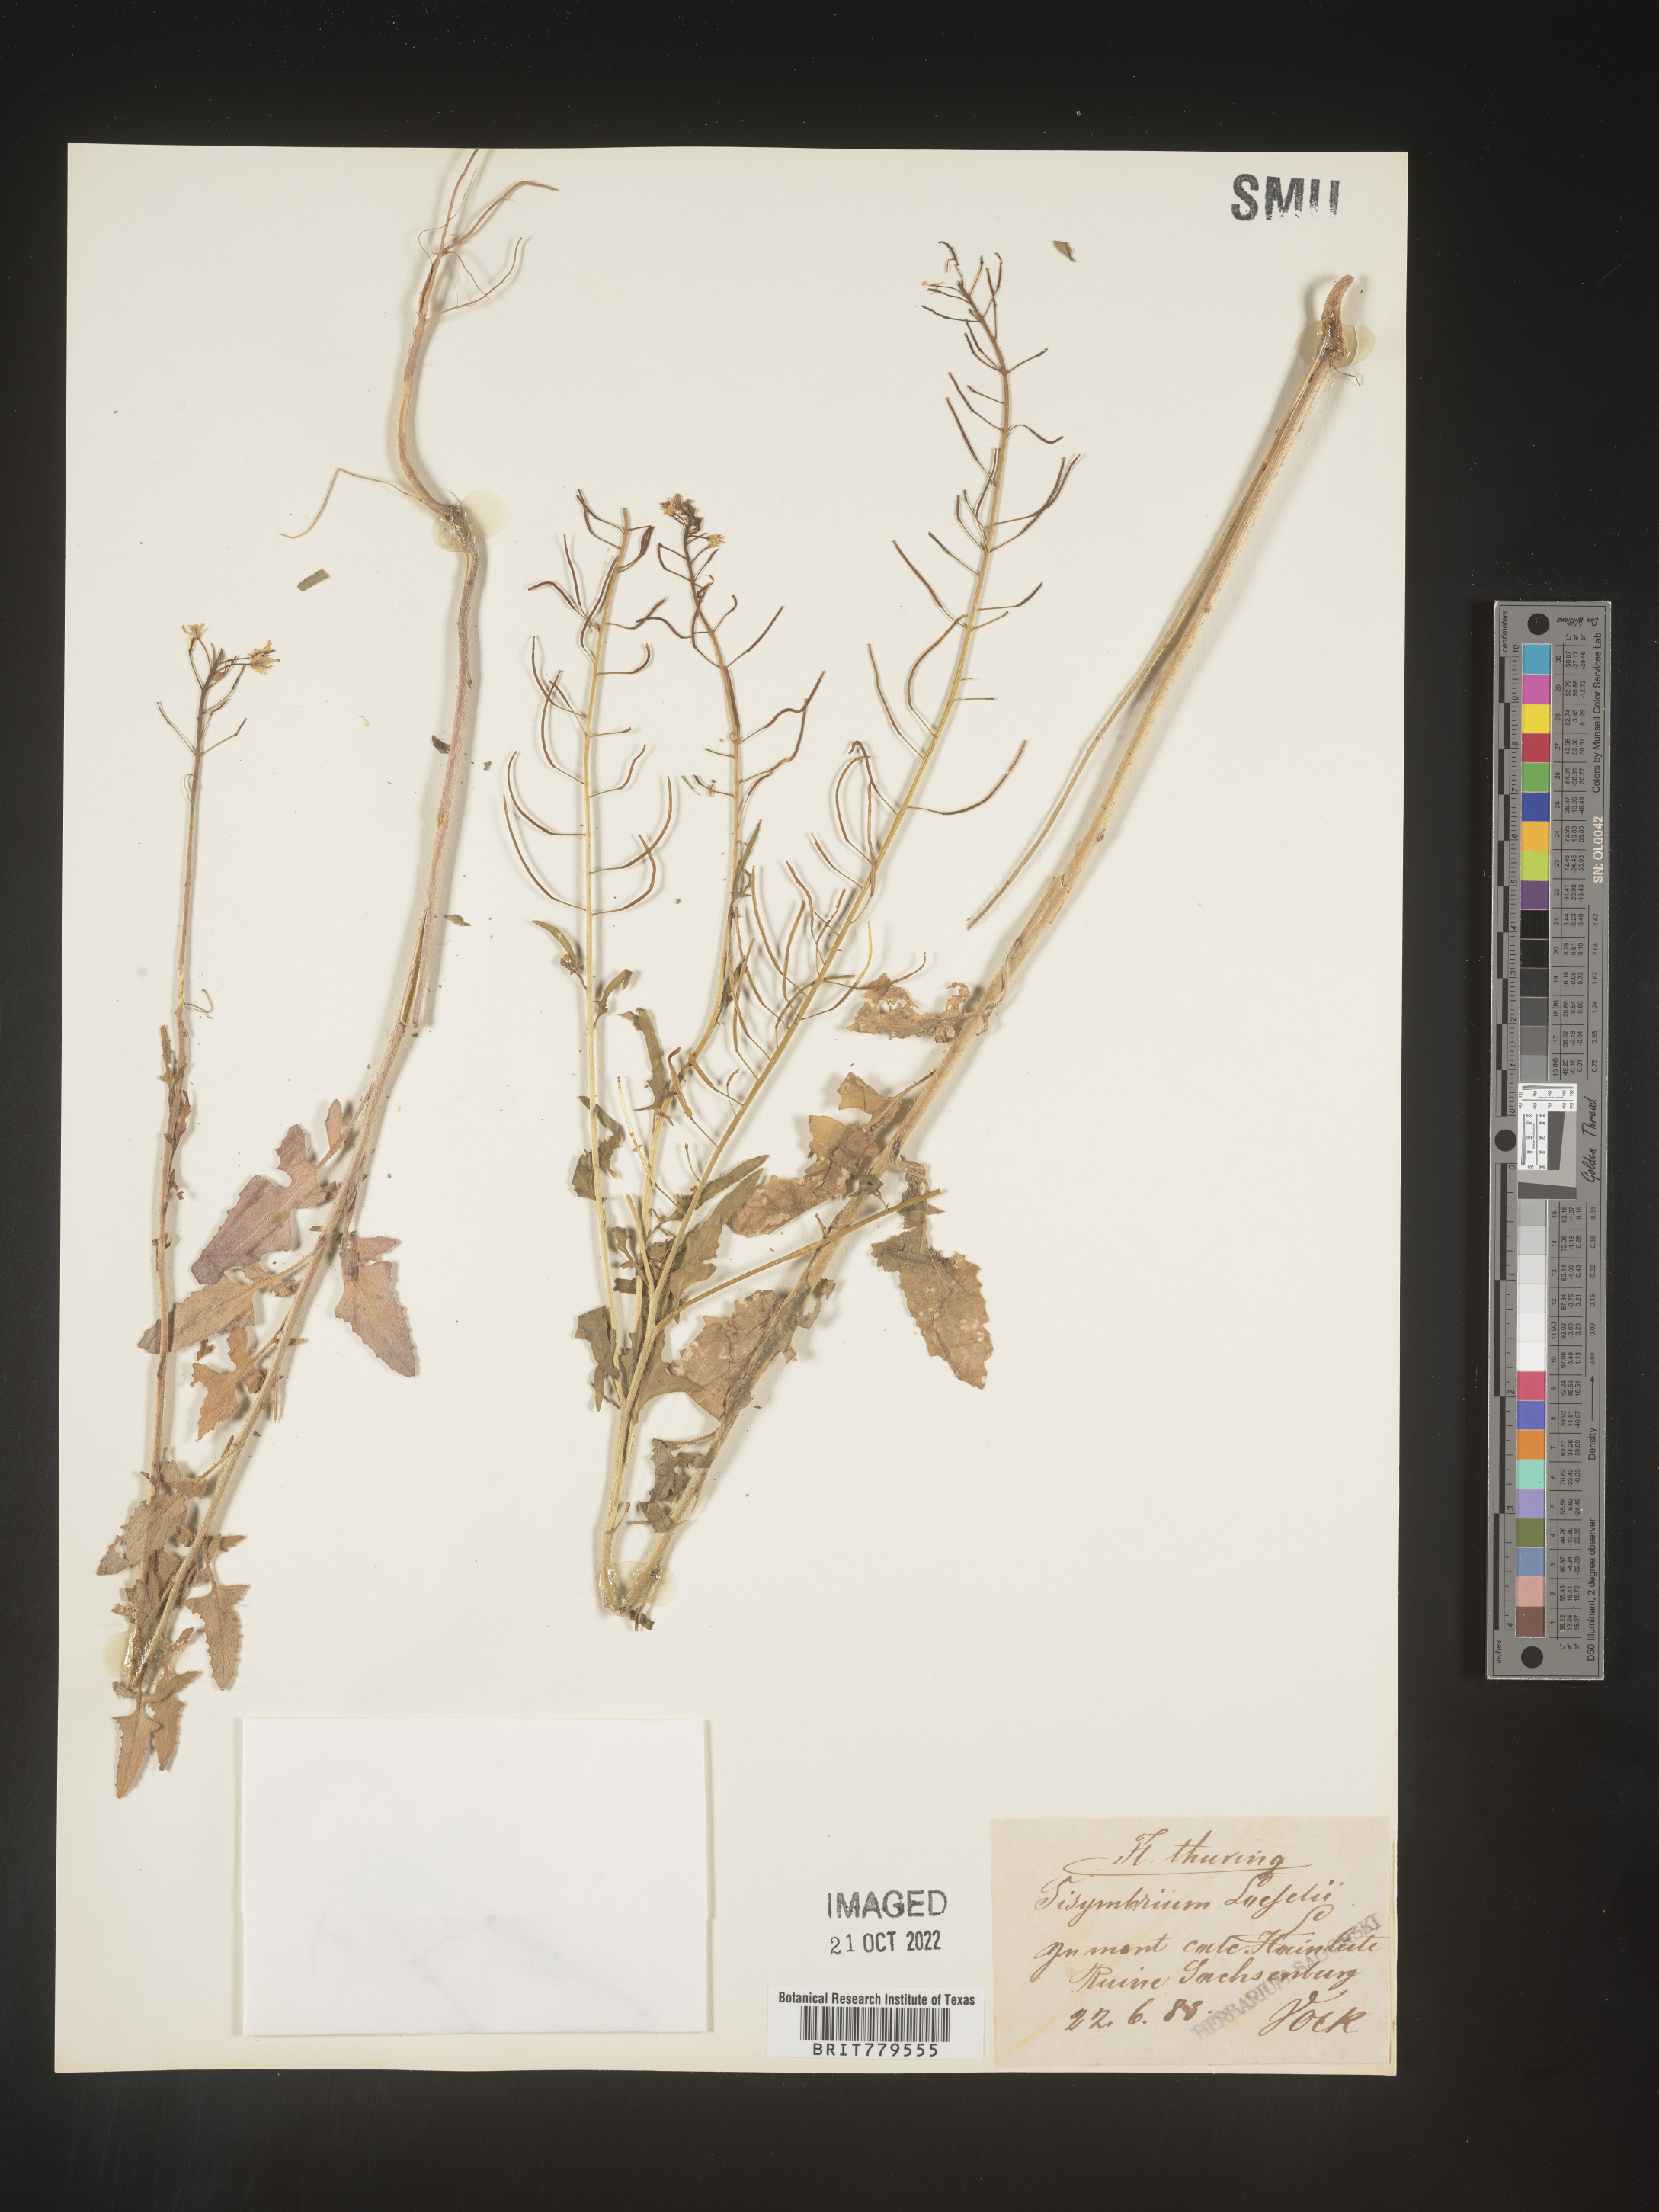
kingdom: Plantae
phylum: Tracheophyta
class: Magnoliopsida
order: Brassicales
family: Brassicaceae
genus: Sisymbrium
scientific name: Sisymbrium
